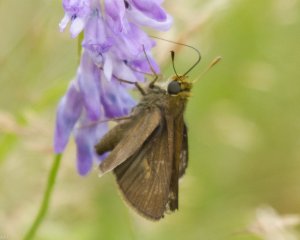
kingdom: Animalia
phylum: Arthropoda
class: Insecta
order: Lepidoptera
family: Hesperiidae
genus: Euphyes
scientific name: Euphyes vestris
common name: Dun Skipper
